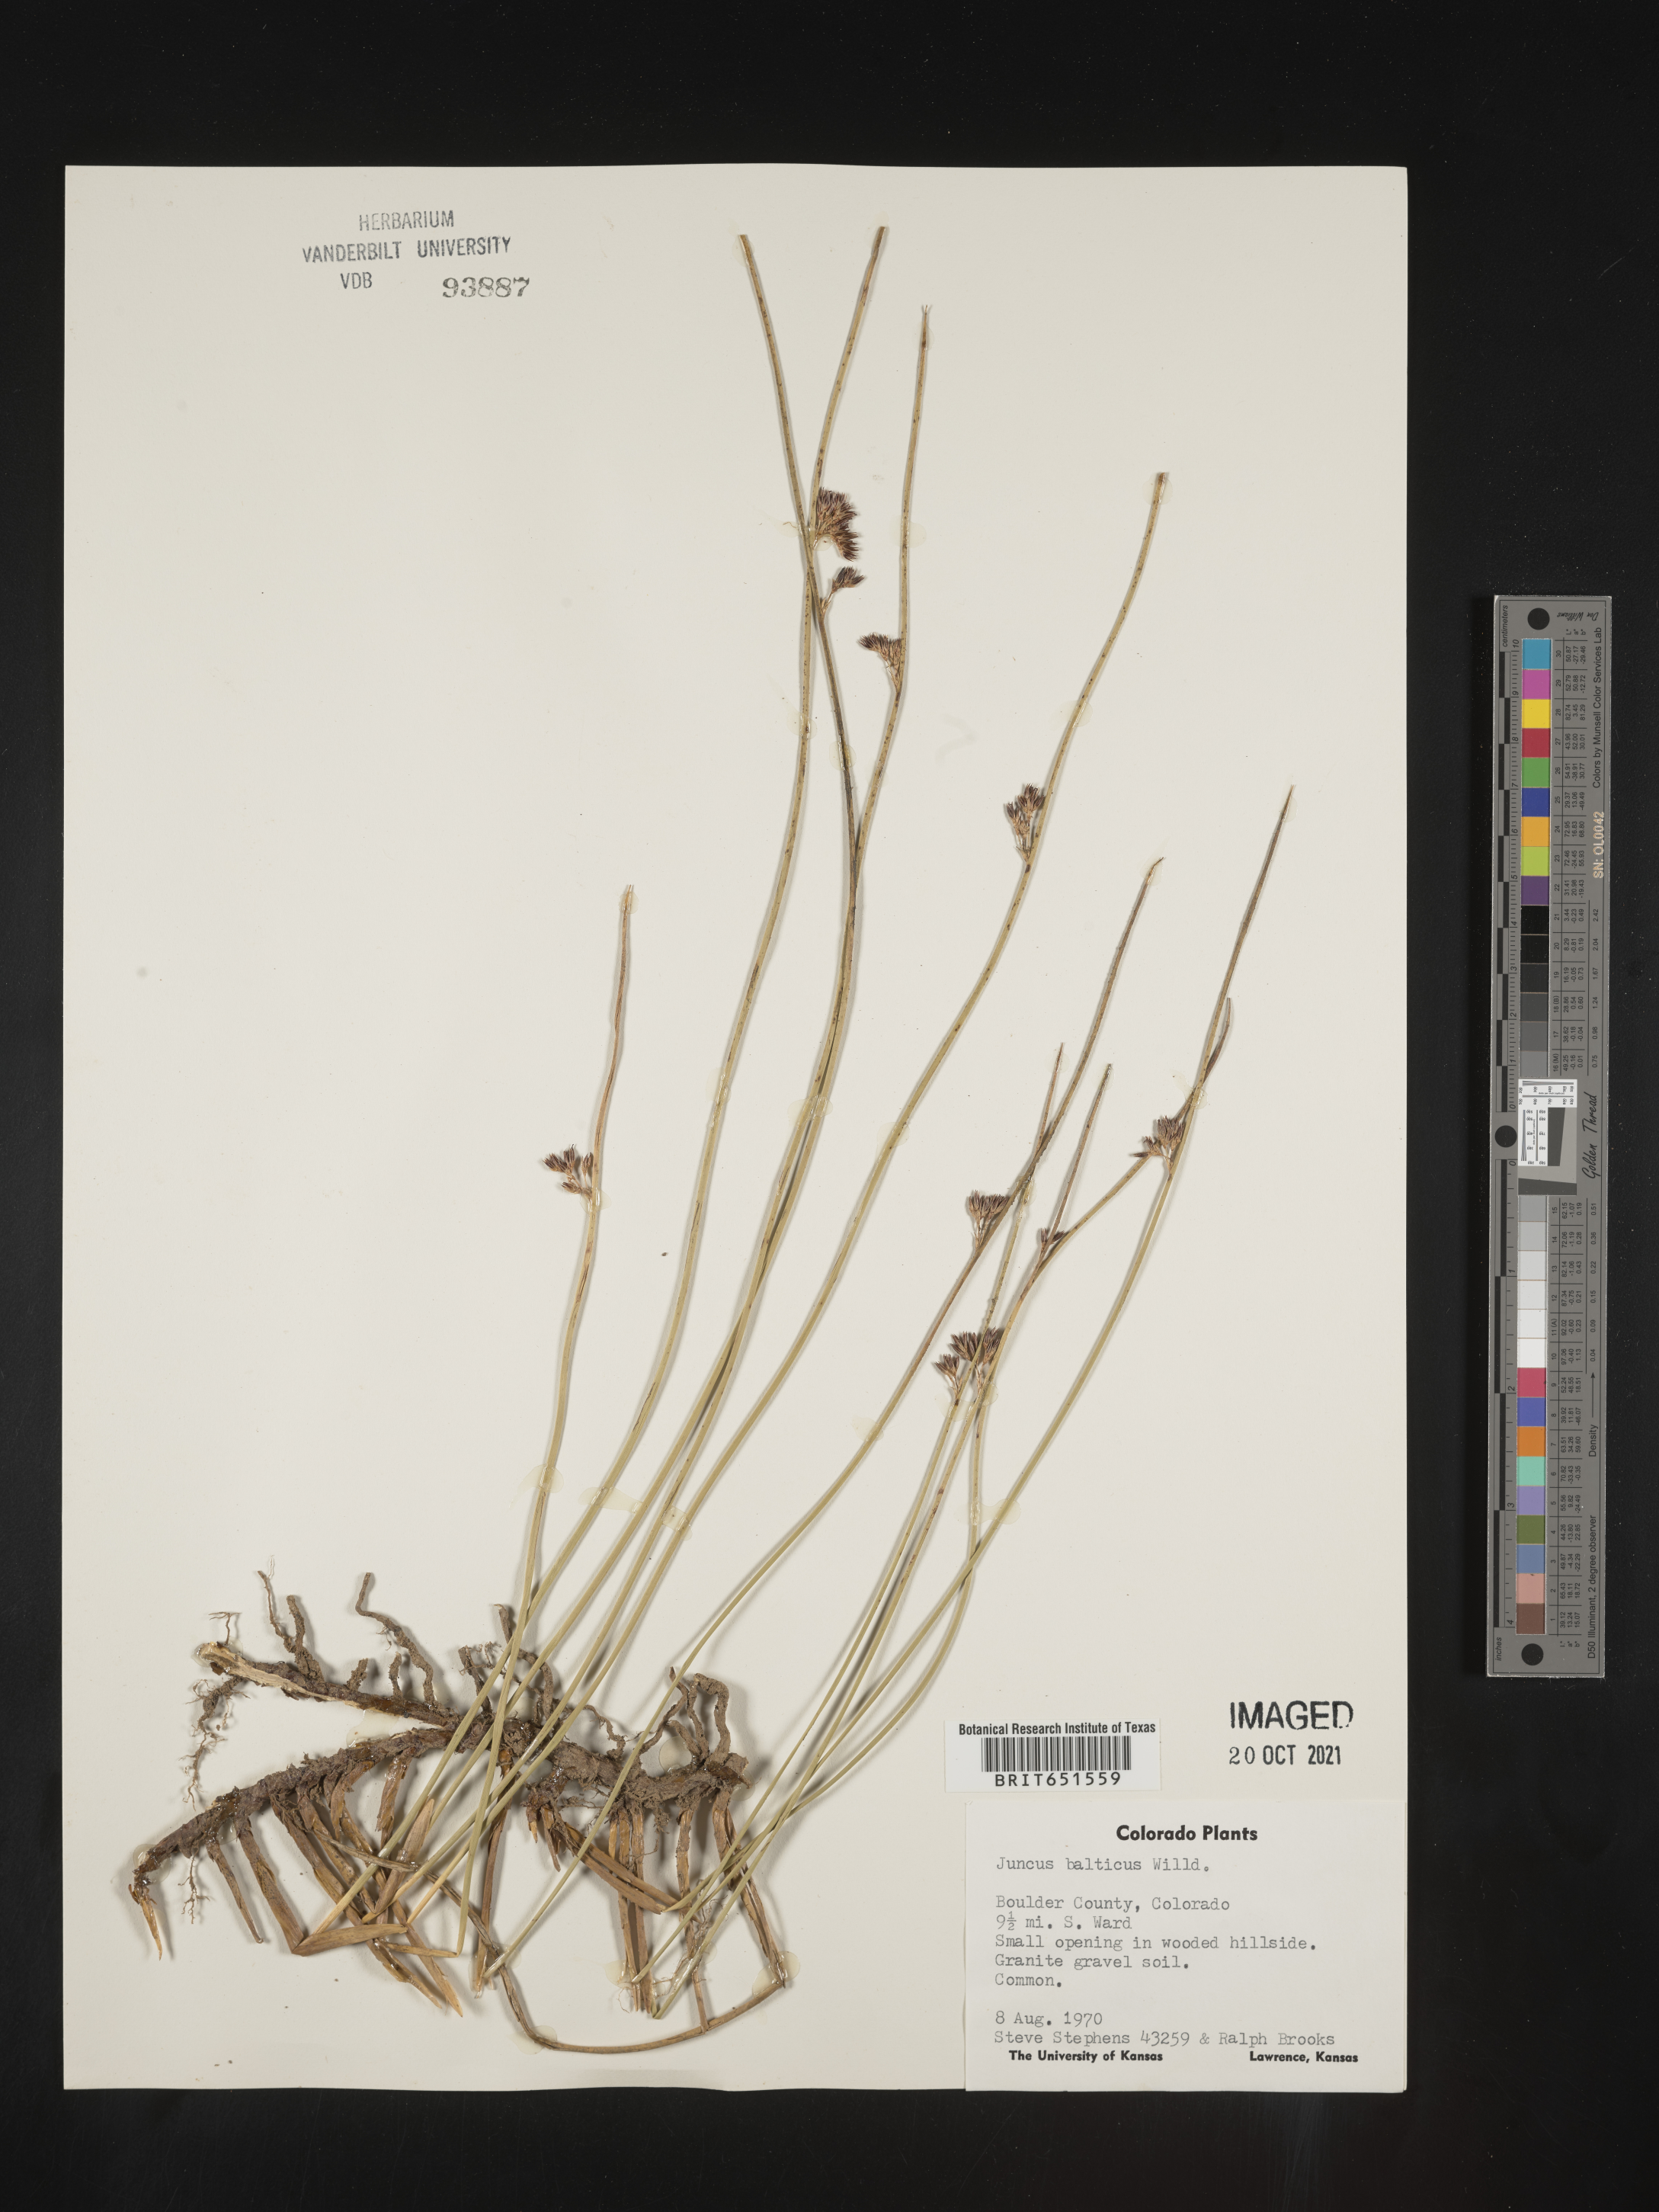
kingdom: Plantae
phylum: Tracheophyta
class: Liliopsida
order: Poales
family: Juncaceae
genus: Juncus
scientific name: Juncus balticus
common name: Baltic rush
